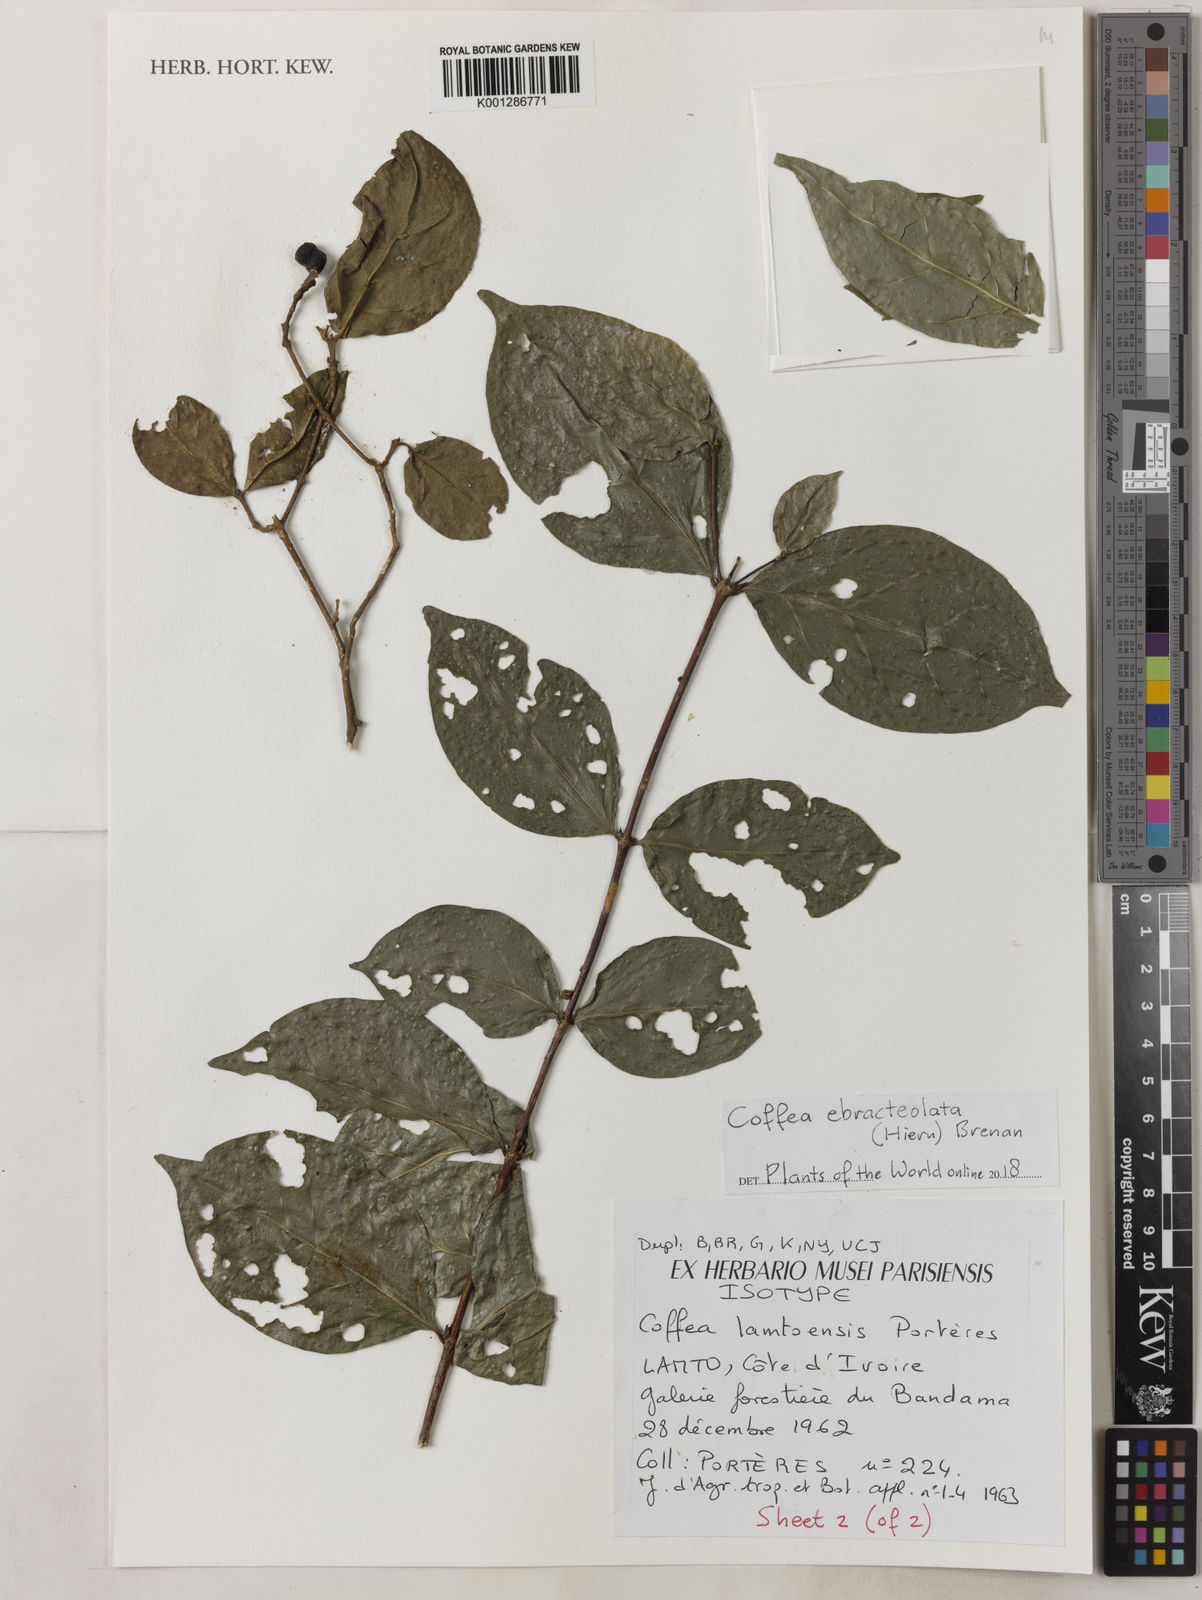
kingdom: Plantae
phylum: Tracheophyta
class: Magnoliopsida
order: Gentianales
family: Rubiaceae
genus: Coffea
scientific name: Coffea ebracteolata
